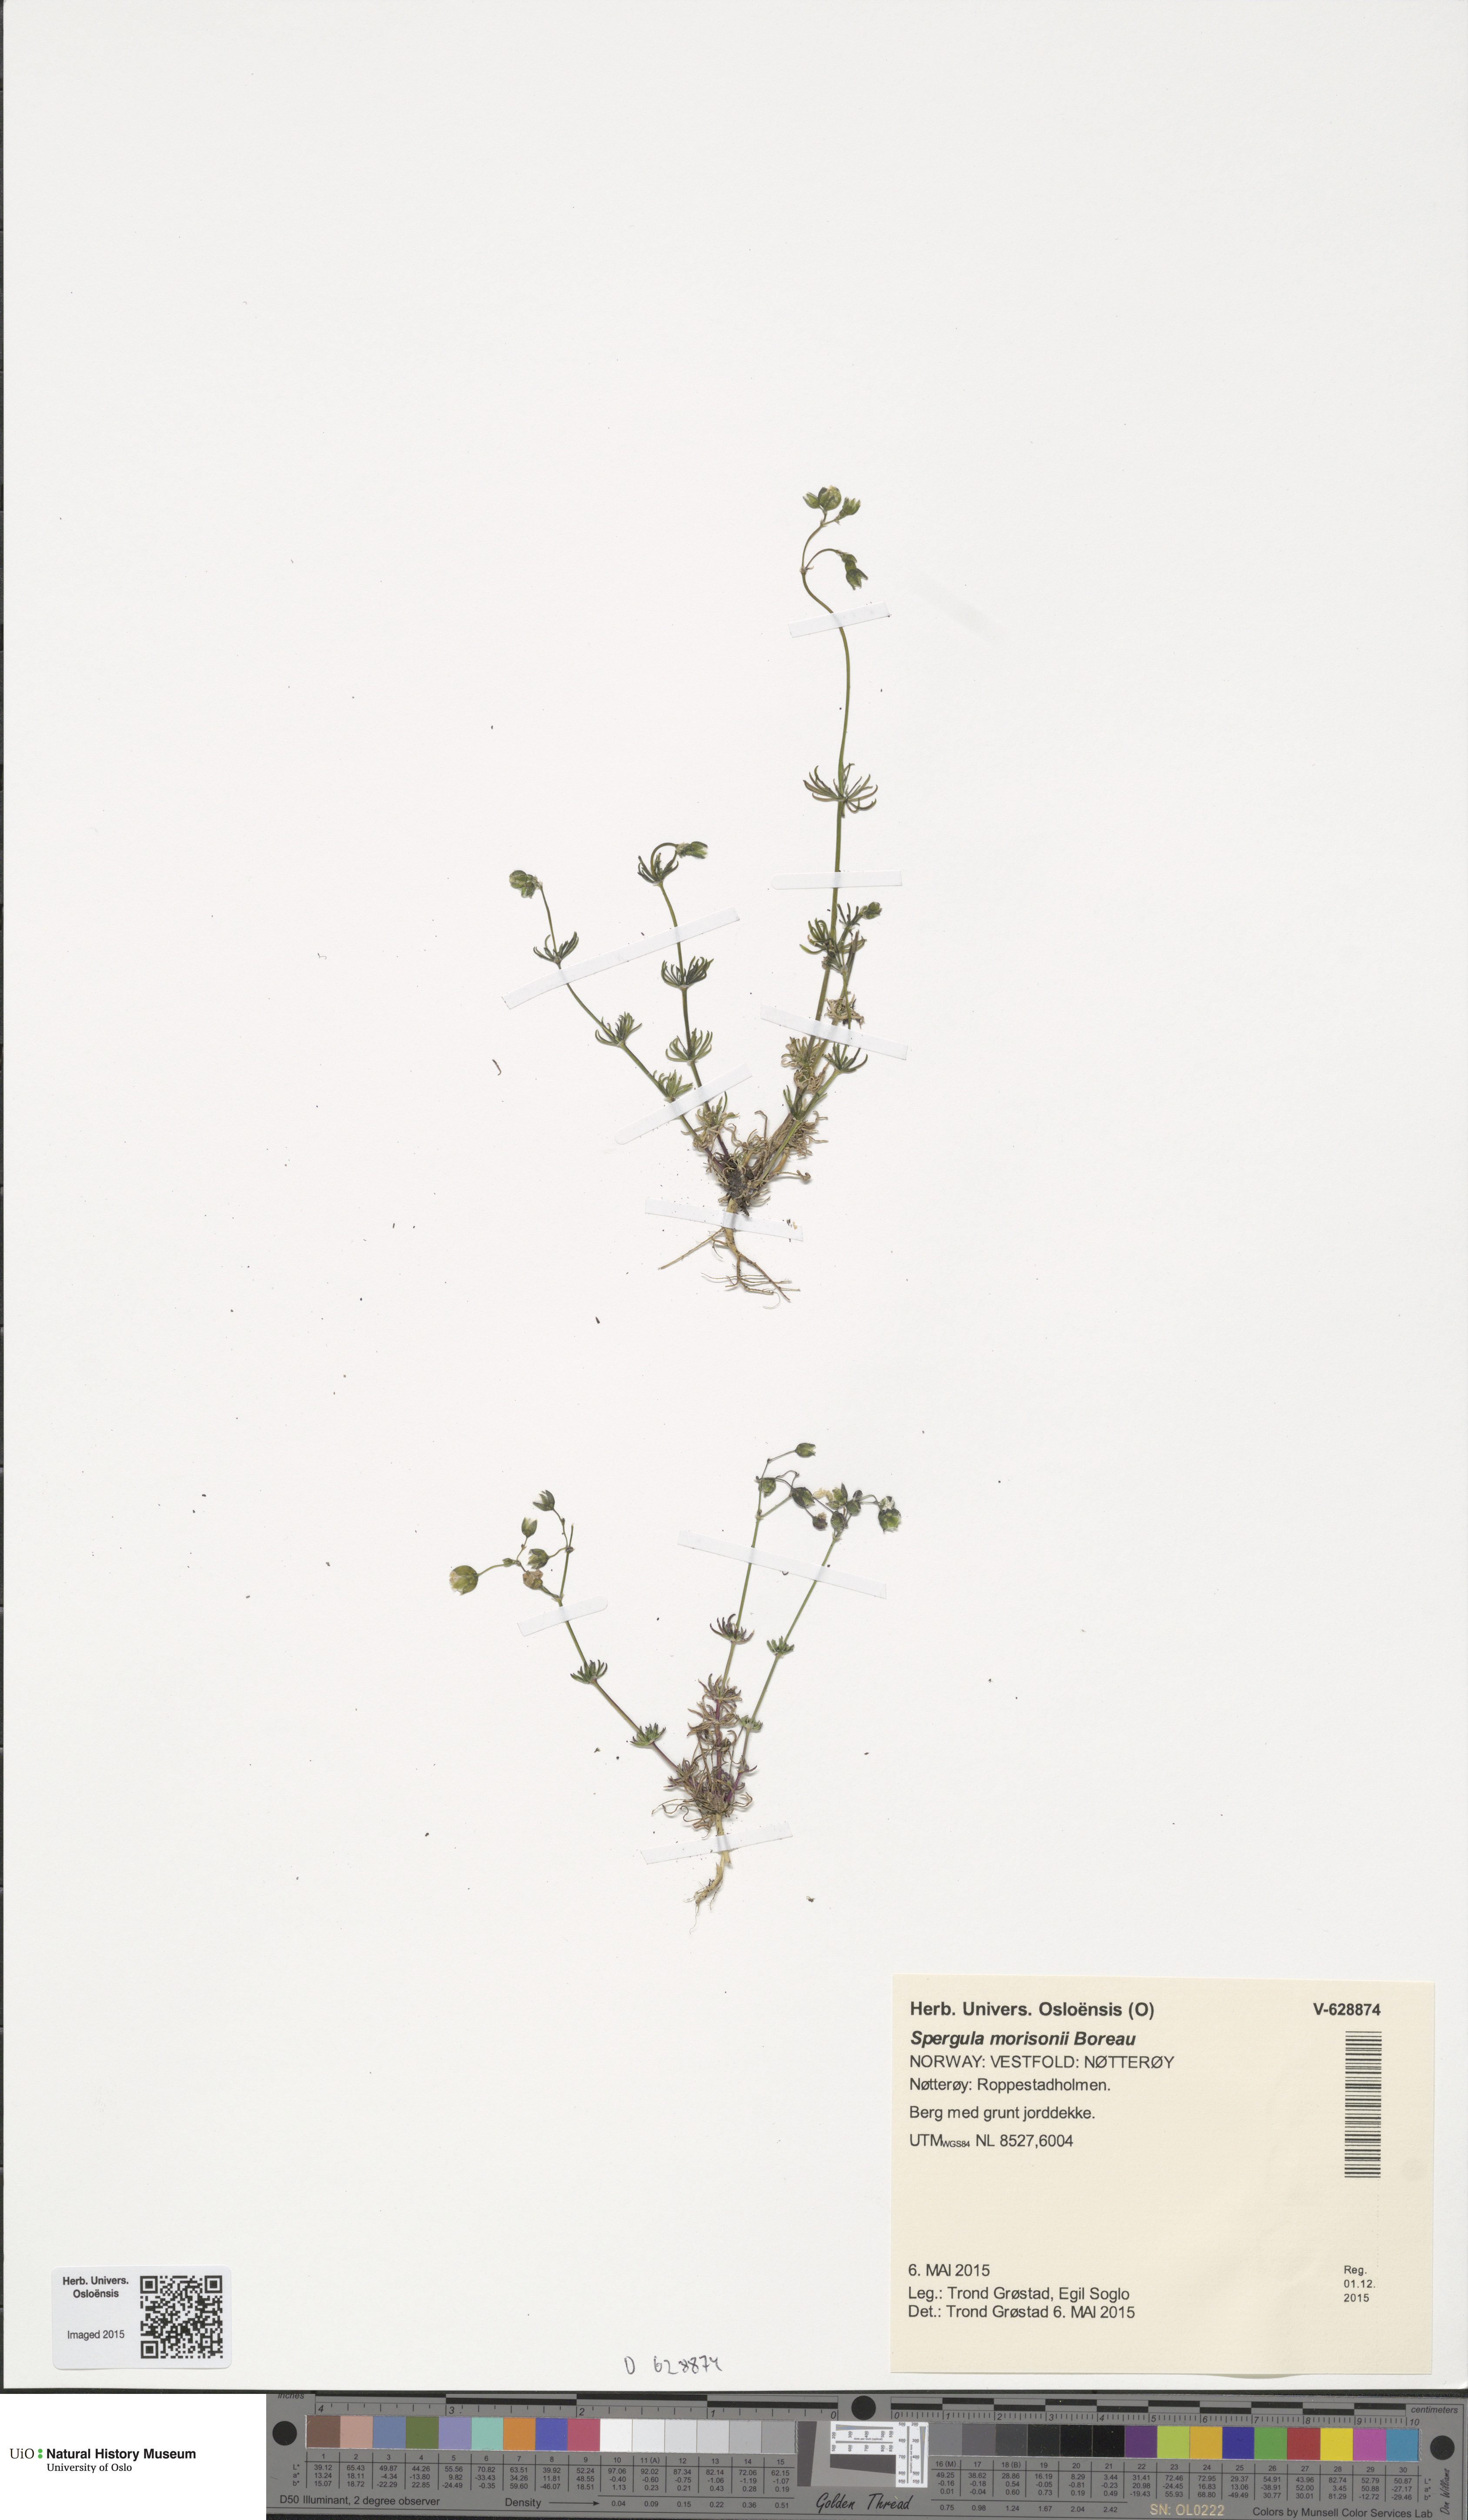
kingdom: Plantae
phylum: Tracheophyta
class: Magnoliopsida
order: Caryophyllales
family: Caryophyllaceae
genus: Spergula
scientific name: Spergula morisonii
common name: Pearlwort spurrey
